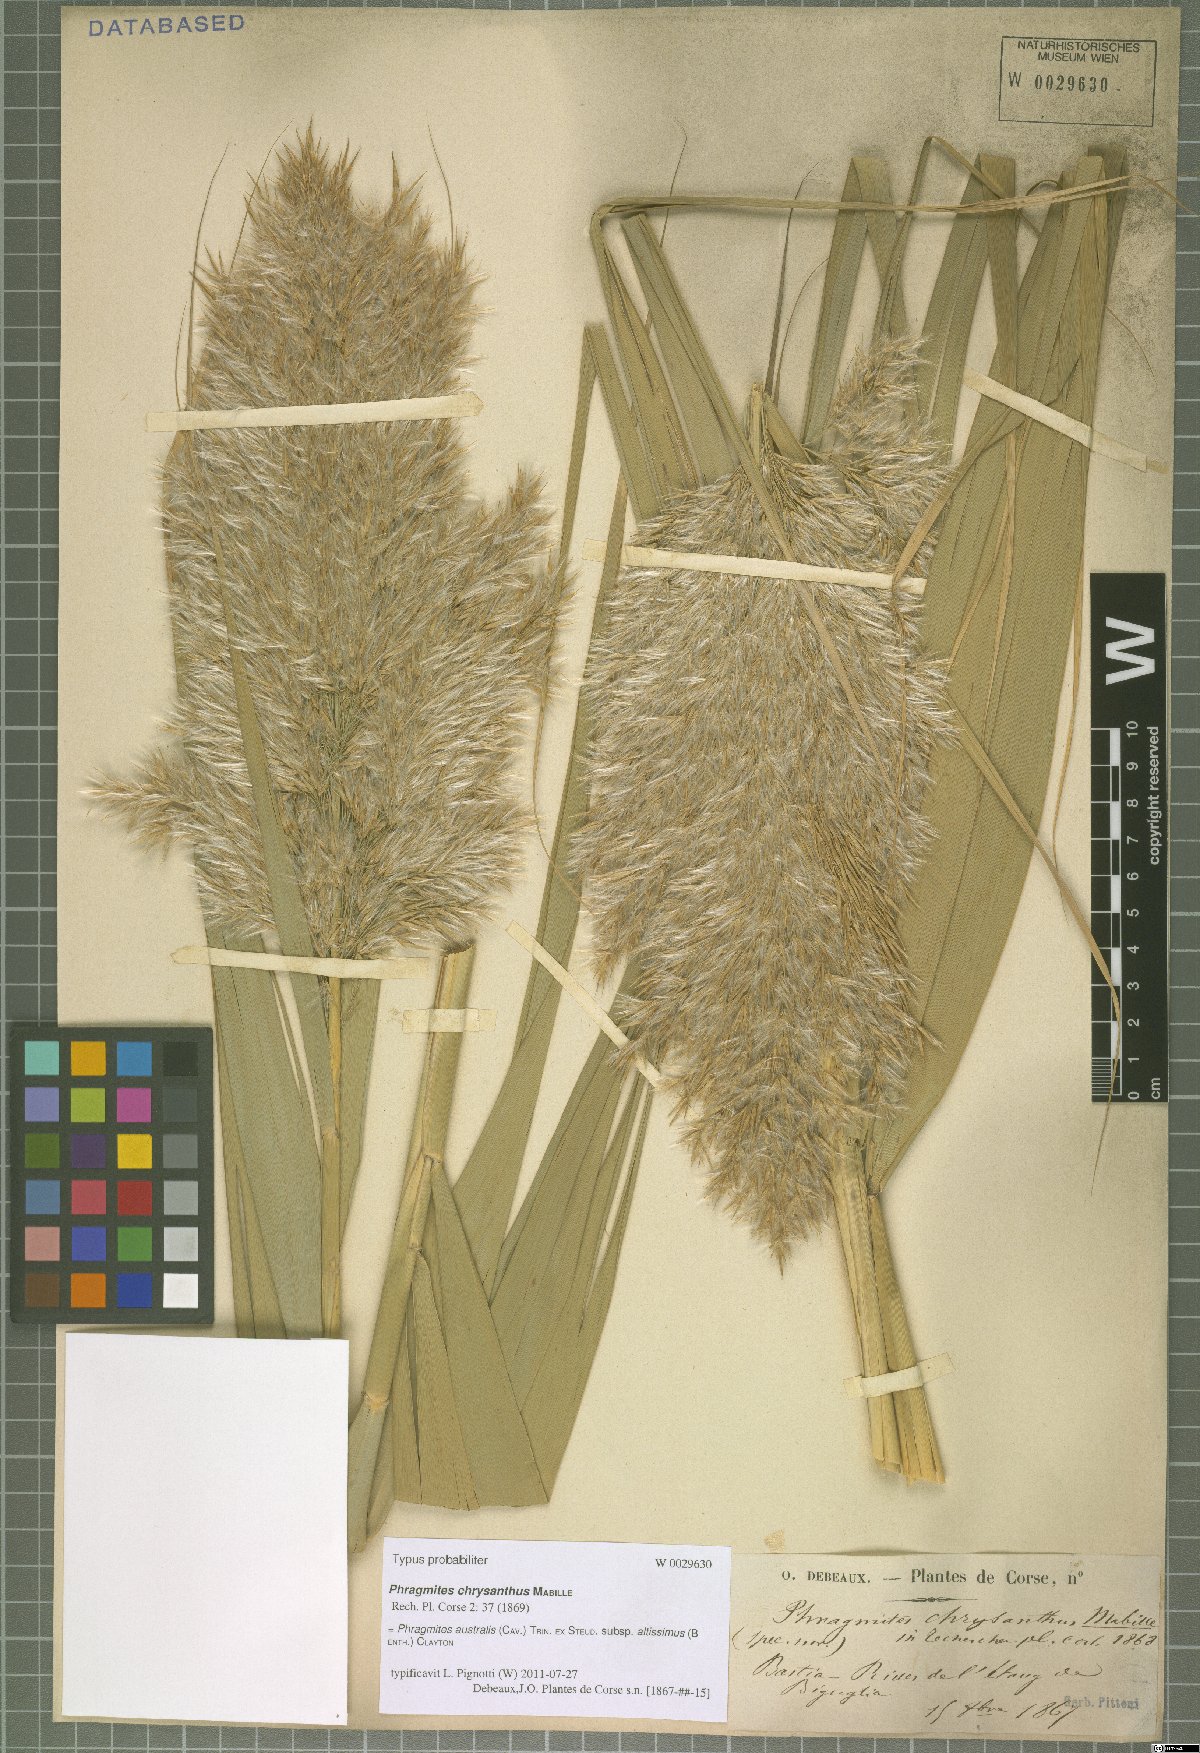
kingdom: Plantae
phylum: Tracheophyta
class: Liliopsida
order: Poales
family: Poaceae
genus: Phragmites
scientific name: Phragmites australis
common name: Common reed
